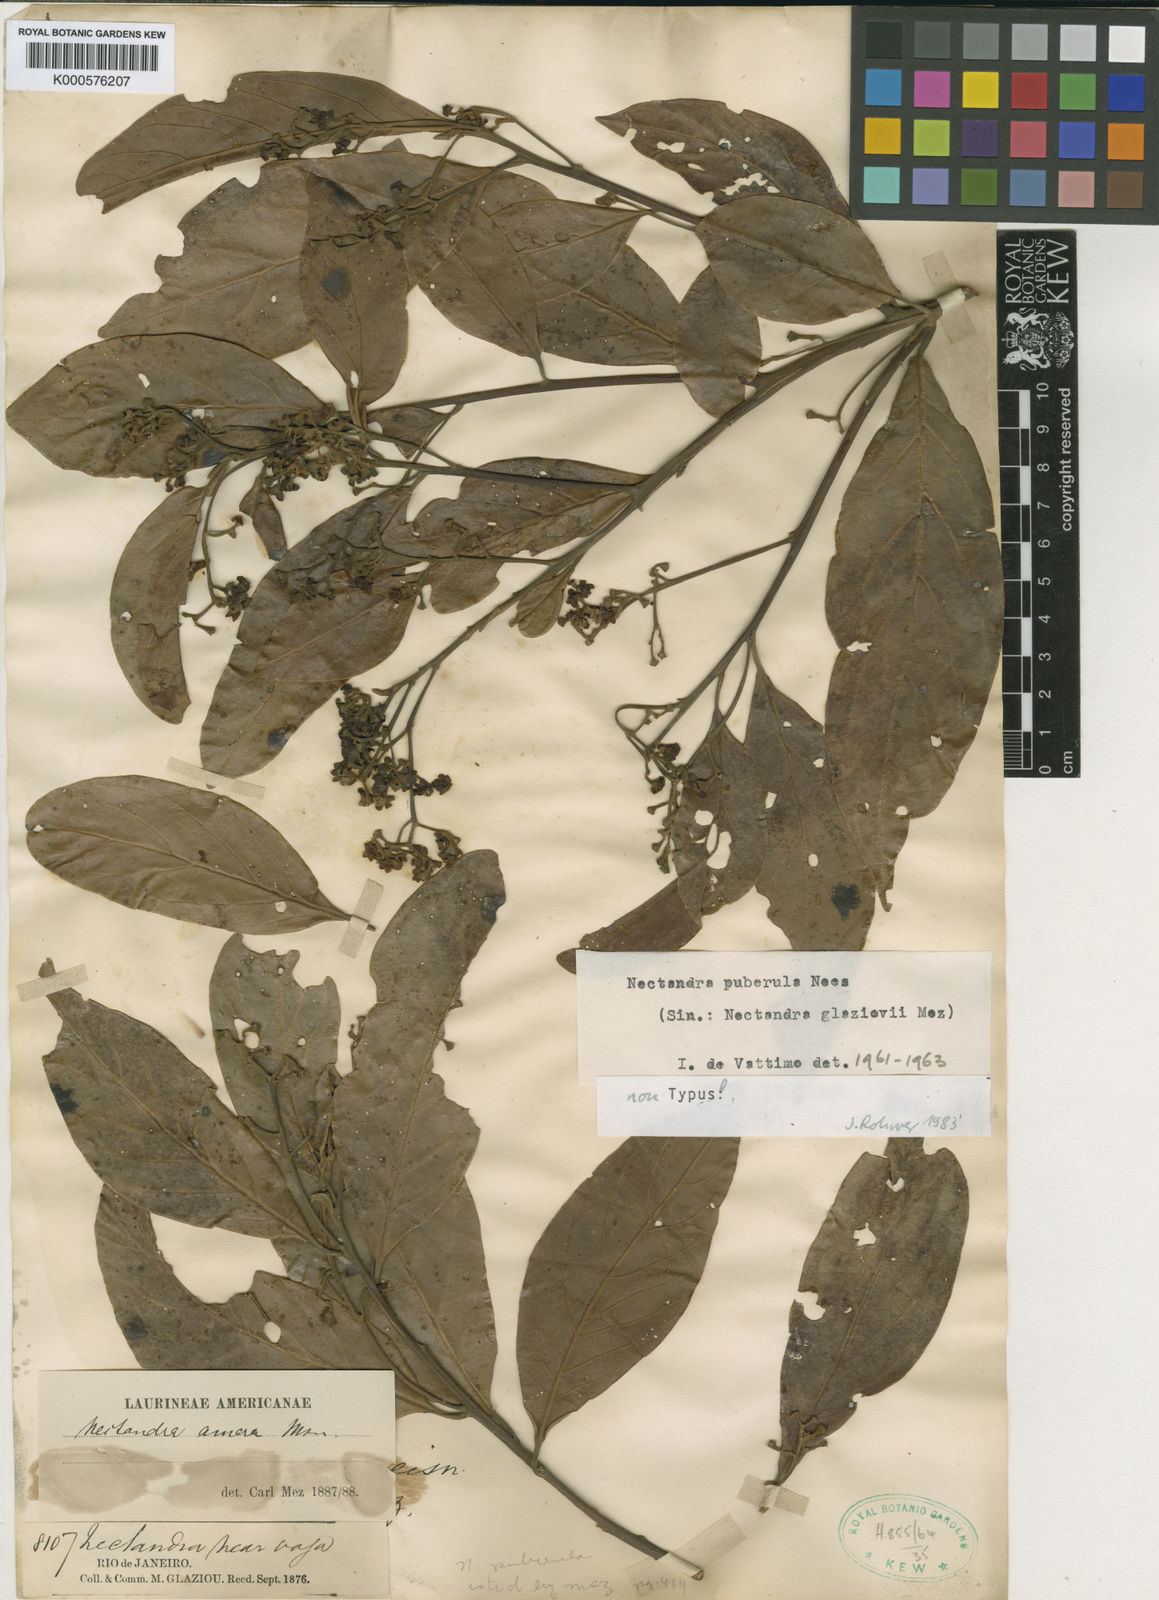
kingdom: Plantae
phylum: Tracheophyta
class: Magnoliopsida
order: Laurales
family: Lauraceae
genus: Nectandra
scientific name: Nectandra warmingii
